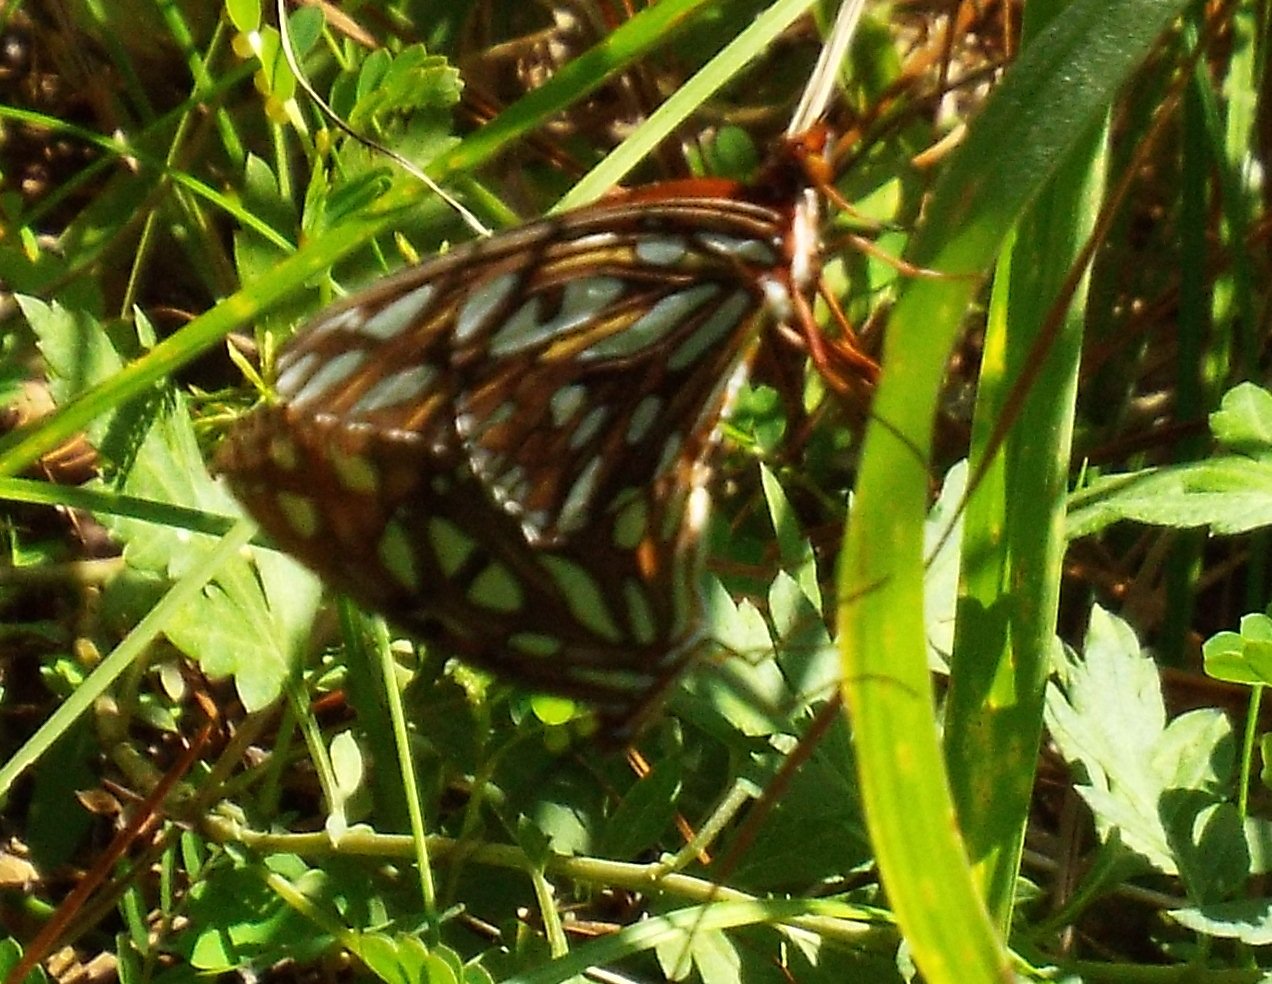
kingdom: Animalia
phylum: Arthropoda
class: Insecta
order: Lepidoptera
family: Nymphalidae
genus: Dione
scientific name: Dione vanillae
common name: Gulf Fritillary
